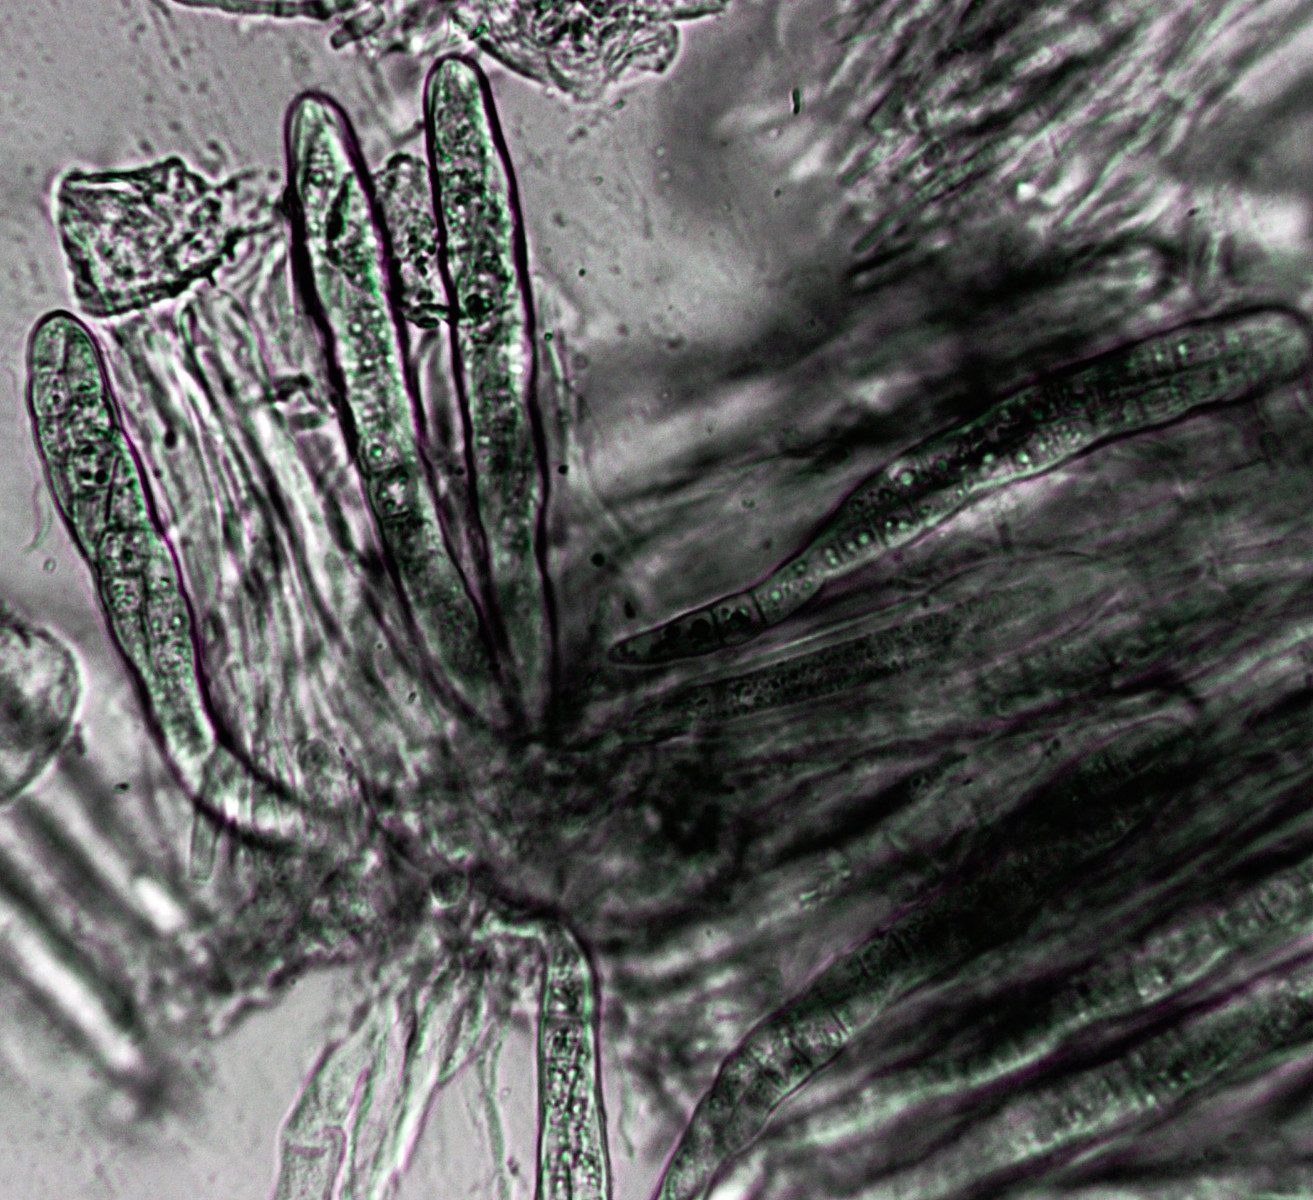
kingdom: Fungi
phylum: Ascomycota
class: Dothideomycetes
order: Pleosporales
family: Phaeosphaeriaceae
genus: Nodulosphaeria
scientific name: Nodulosphaeria galiorum
